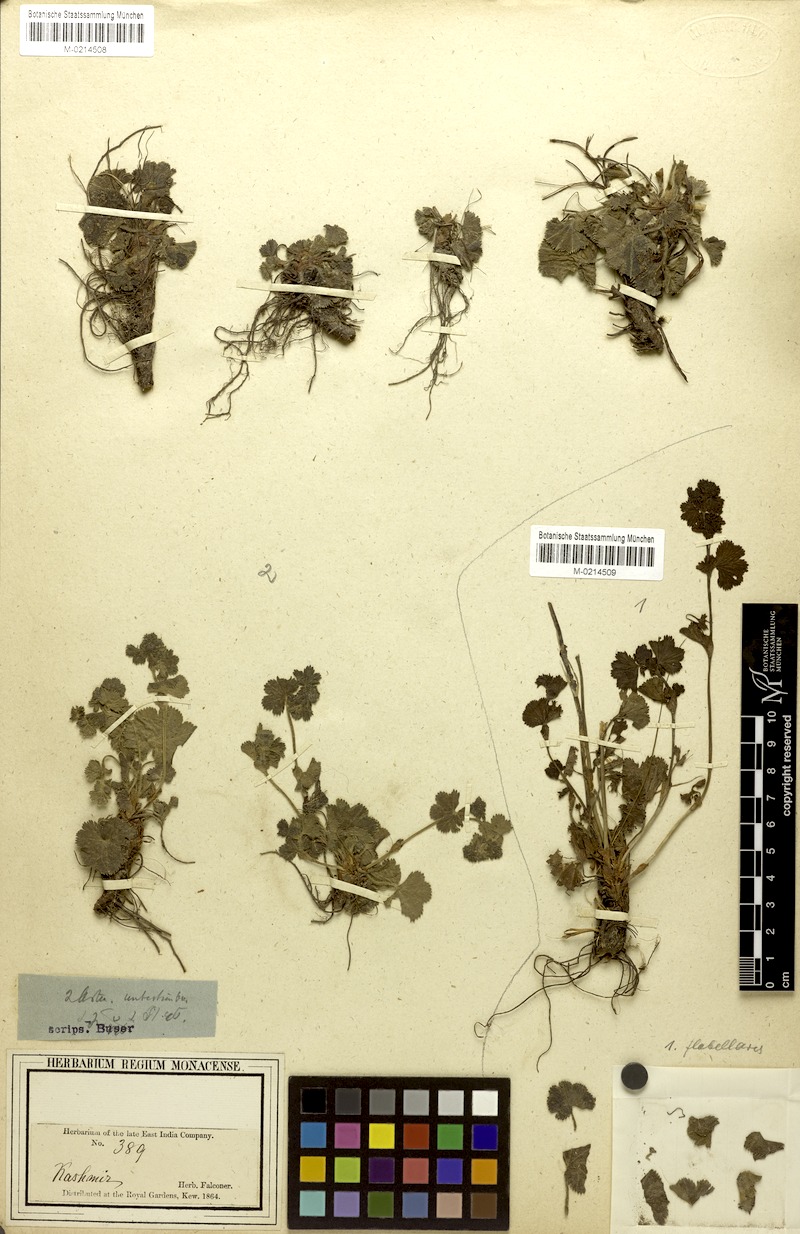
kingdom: Plantae
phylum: Tracheophyta
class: Magnoliopsida
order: Rosales
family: Rosaceae
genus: Alchemilla
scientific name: Alchemilla
